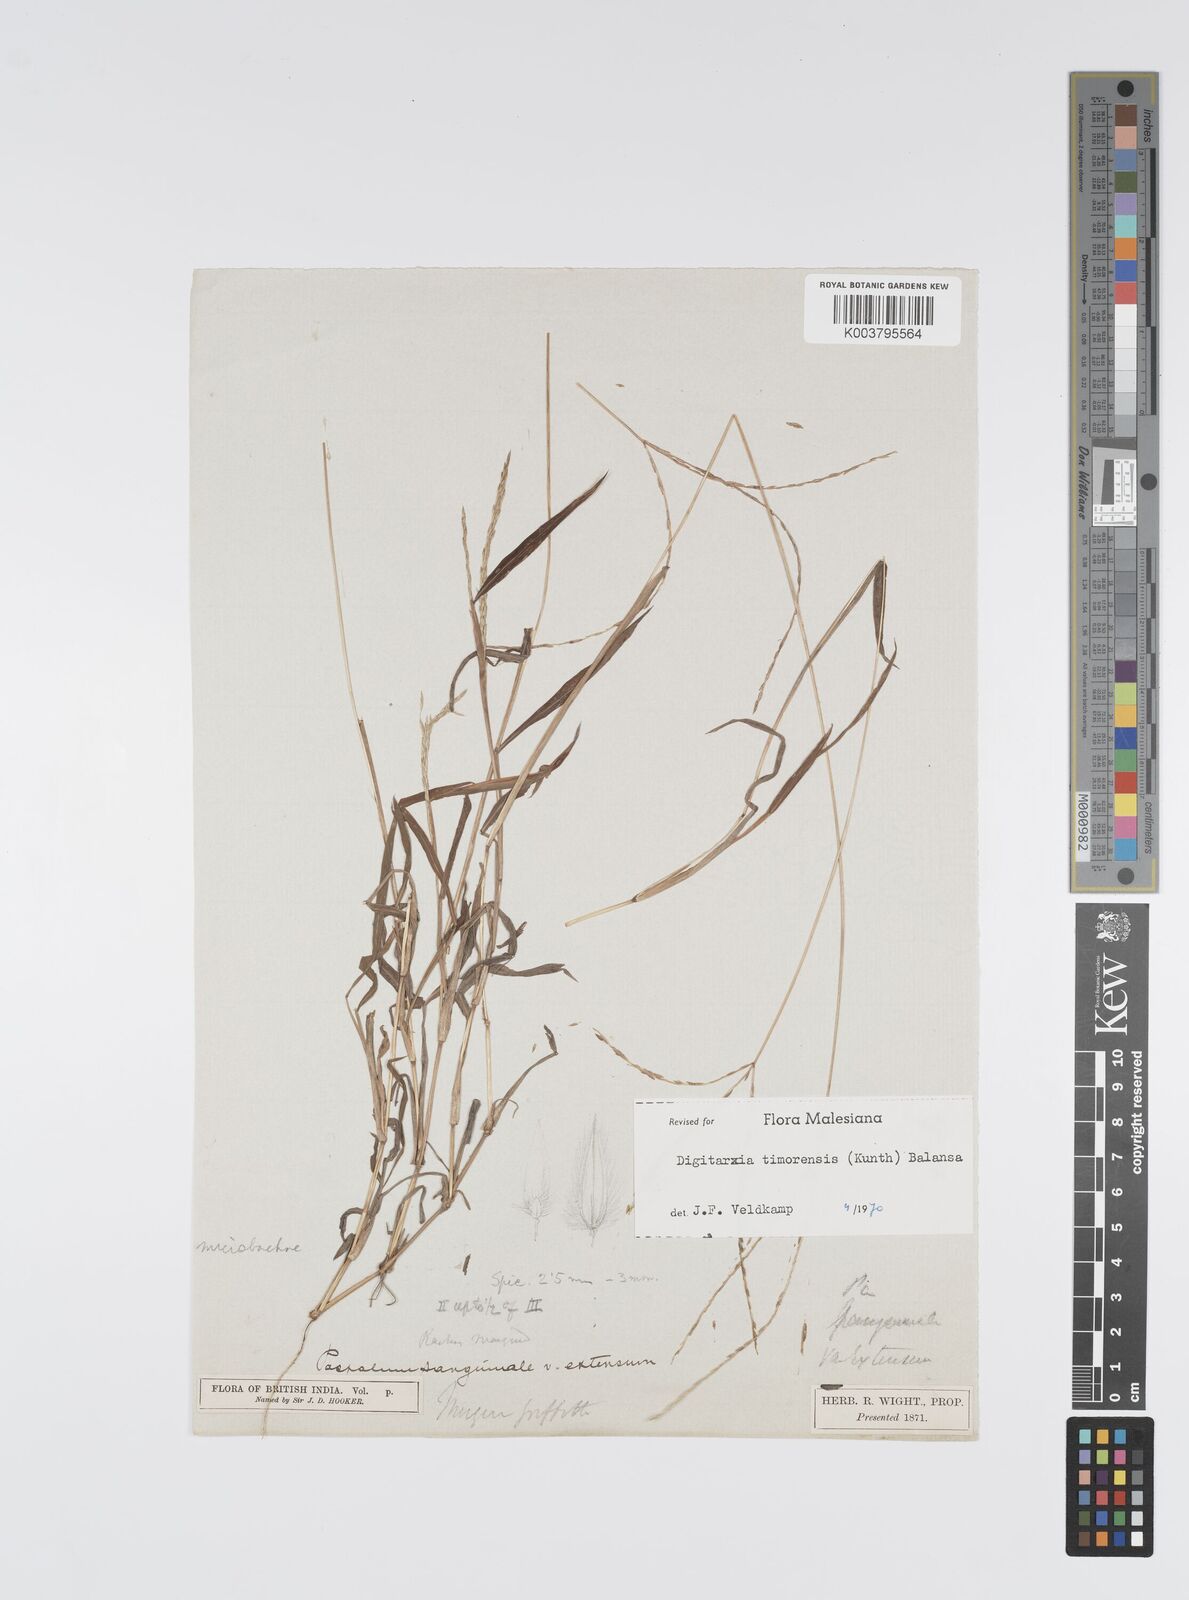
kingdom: Plantae
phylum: Tracheophyta
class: Liliopsida
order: Poales
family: Poaceae
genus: Digitaria
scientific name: Digitaria radicosa
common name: Trailing crabgrass
